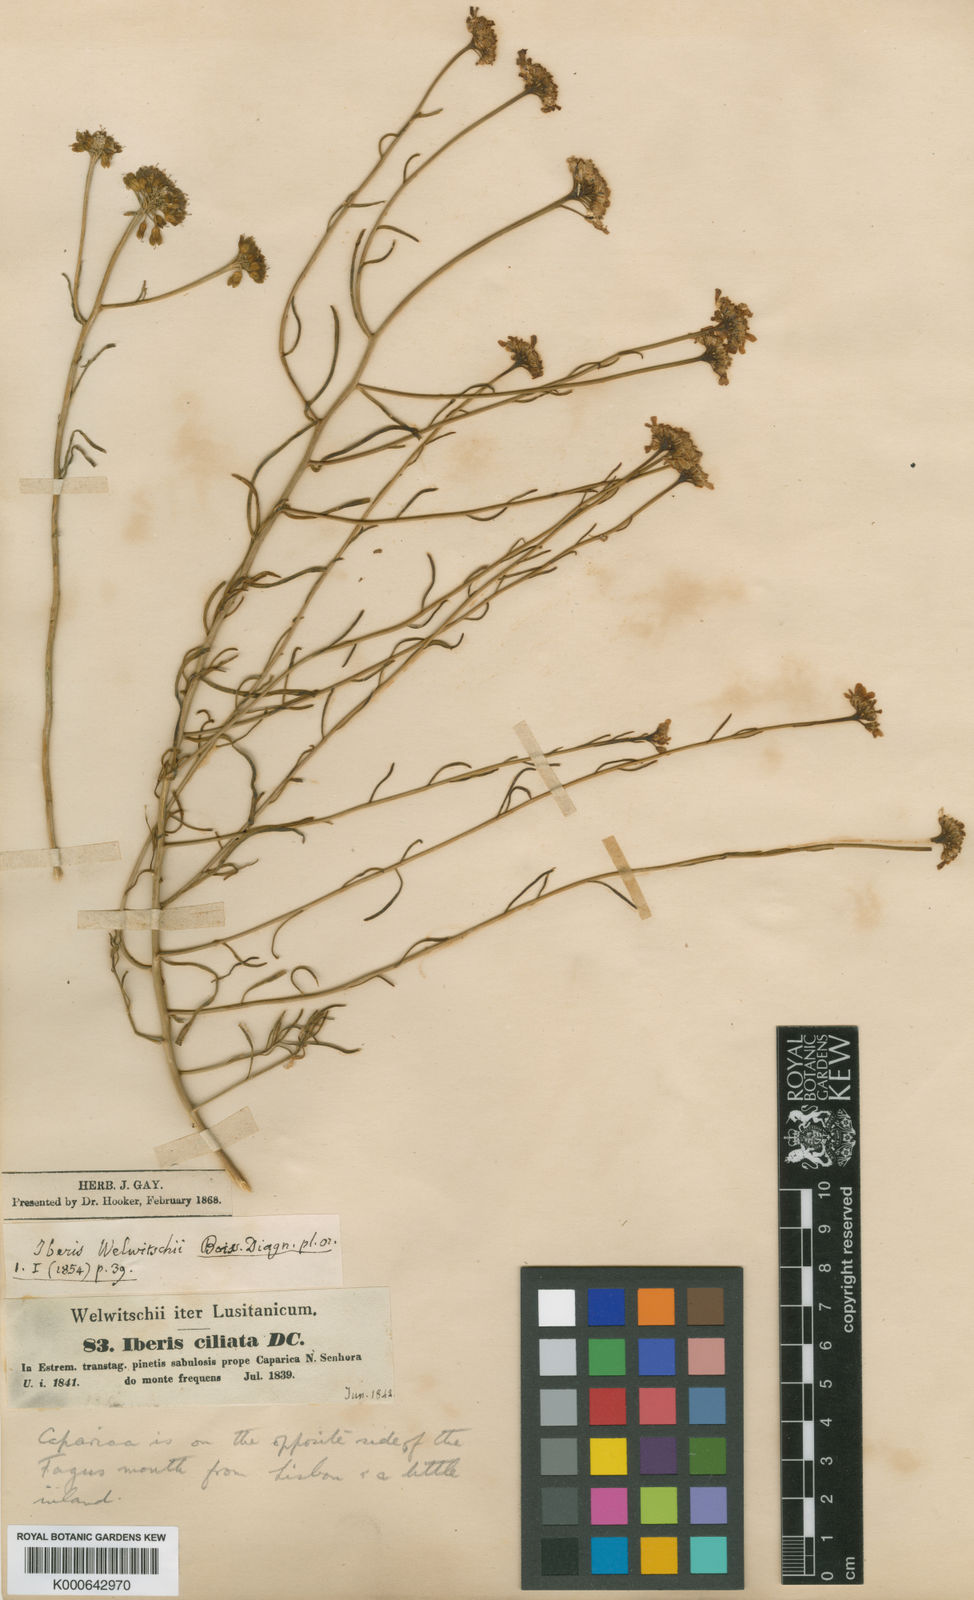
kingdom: Plantae
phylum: Tracheophyta
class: Magnoliopsida
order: Brassicales
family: Brassicaceae
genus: Iberis
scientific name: Iberis
